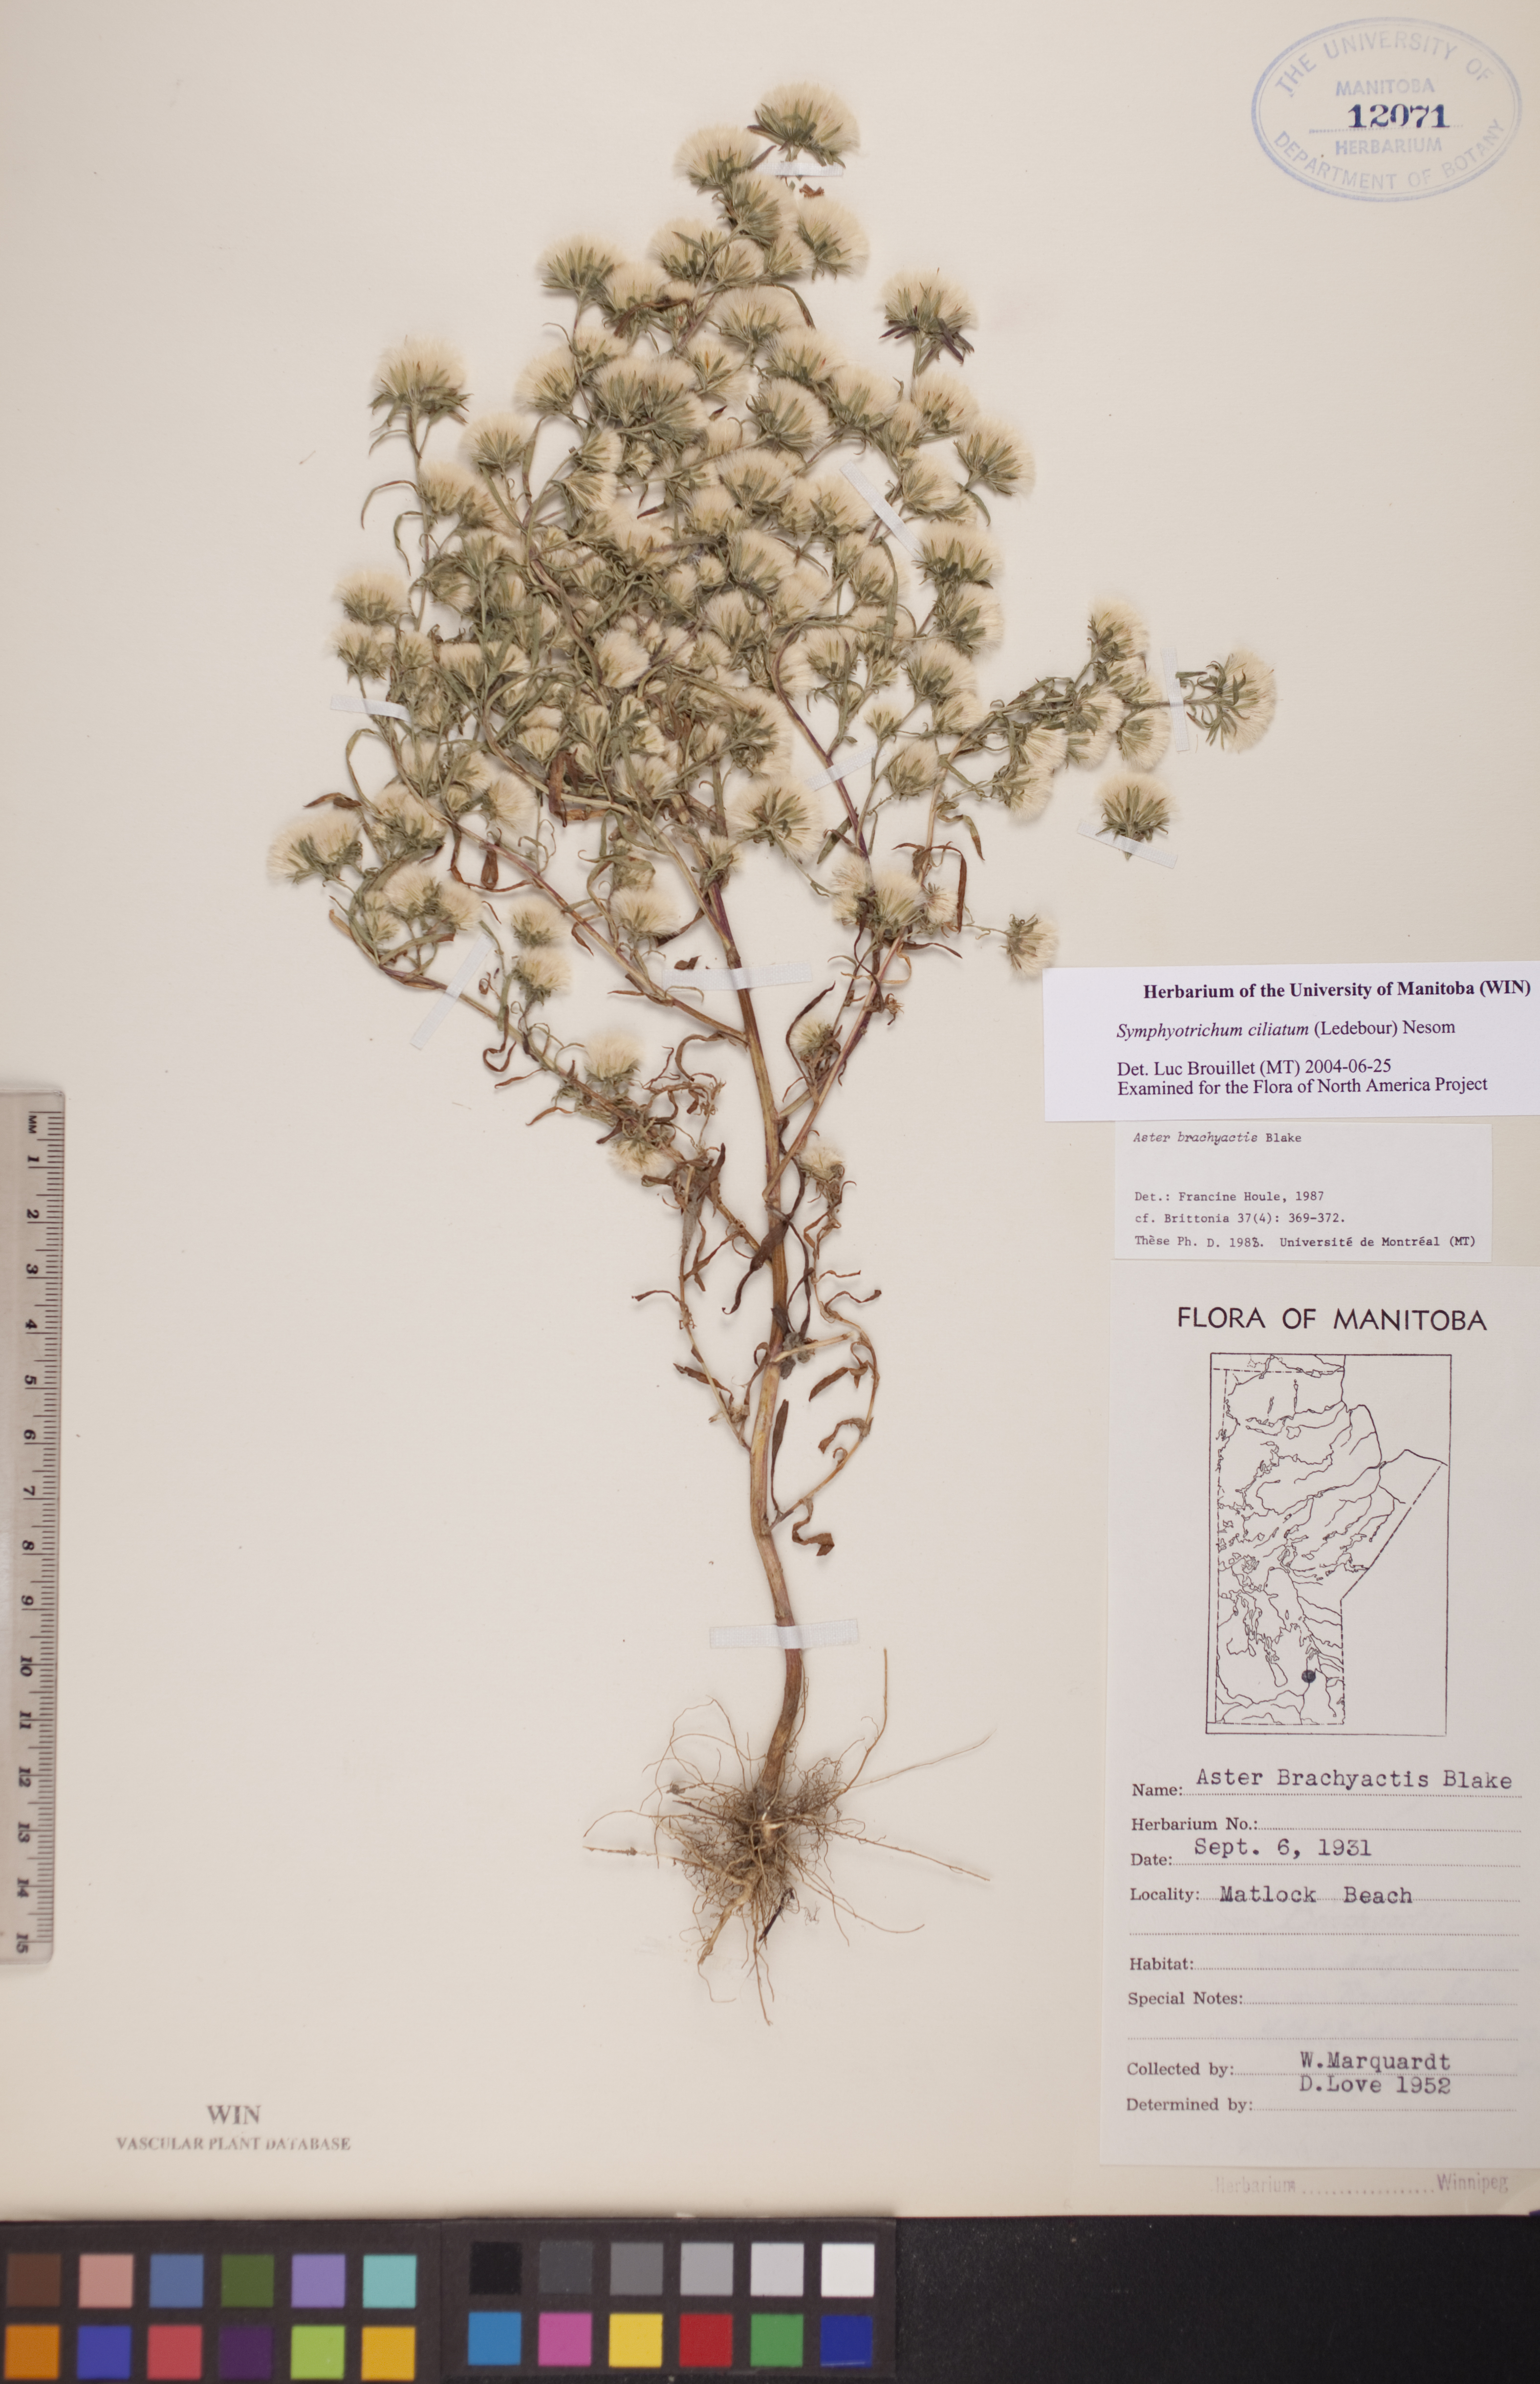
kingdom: Plantae
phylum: Tracheophyta
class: Magnoliopsida
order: Asterales
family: Asteraceae
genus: Symphyotrichum
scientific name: Symphyotrichum ciliatum
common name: Rayless annual aster
